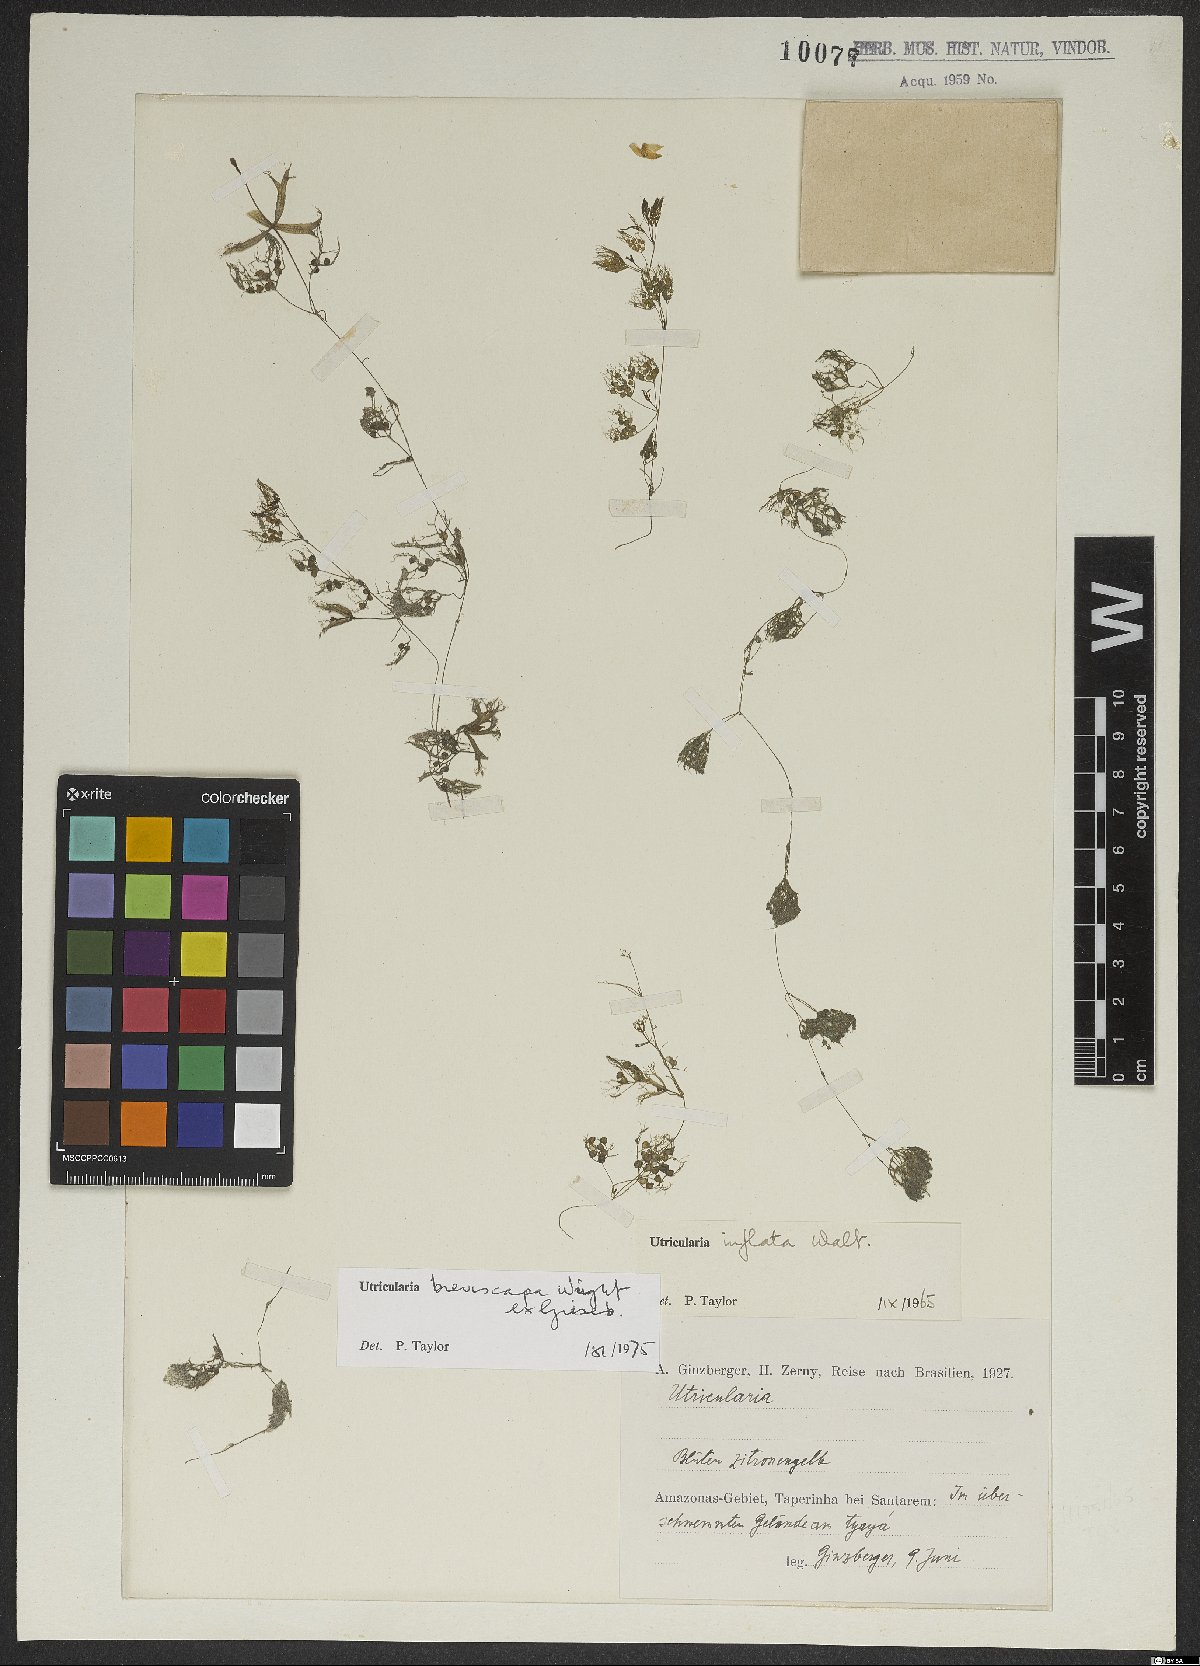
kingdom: Plantae
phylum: Tracheophyta
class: Magnoliopsida
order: Lamiales
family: Lentibulariaceae
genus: Utricularia
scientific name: Utricularia breviscapa
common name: Bladderwort
